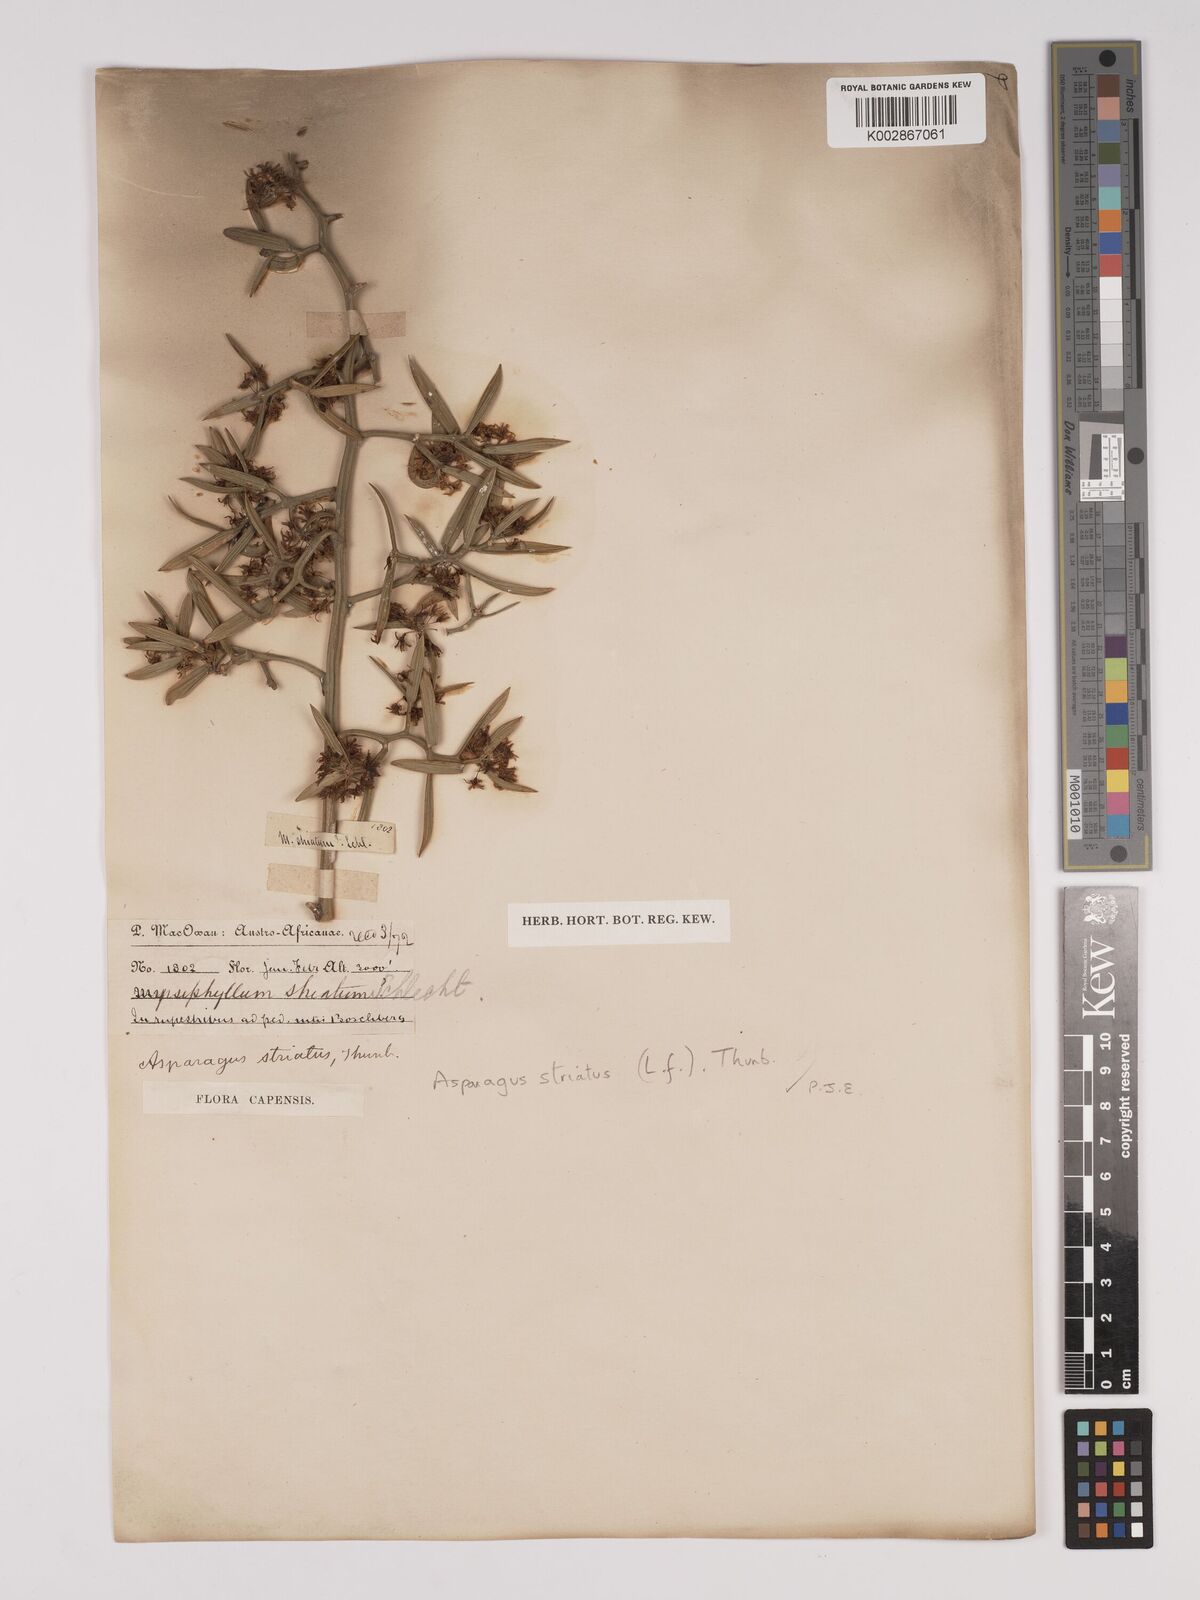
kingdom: Plantae
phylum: Tracheophyta
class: Liliopsida
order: Asparagales
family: Asparagaceae
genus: Asparagus
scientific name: Asparagus striatus
